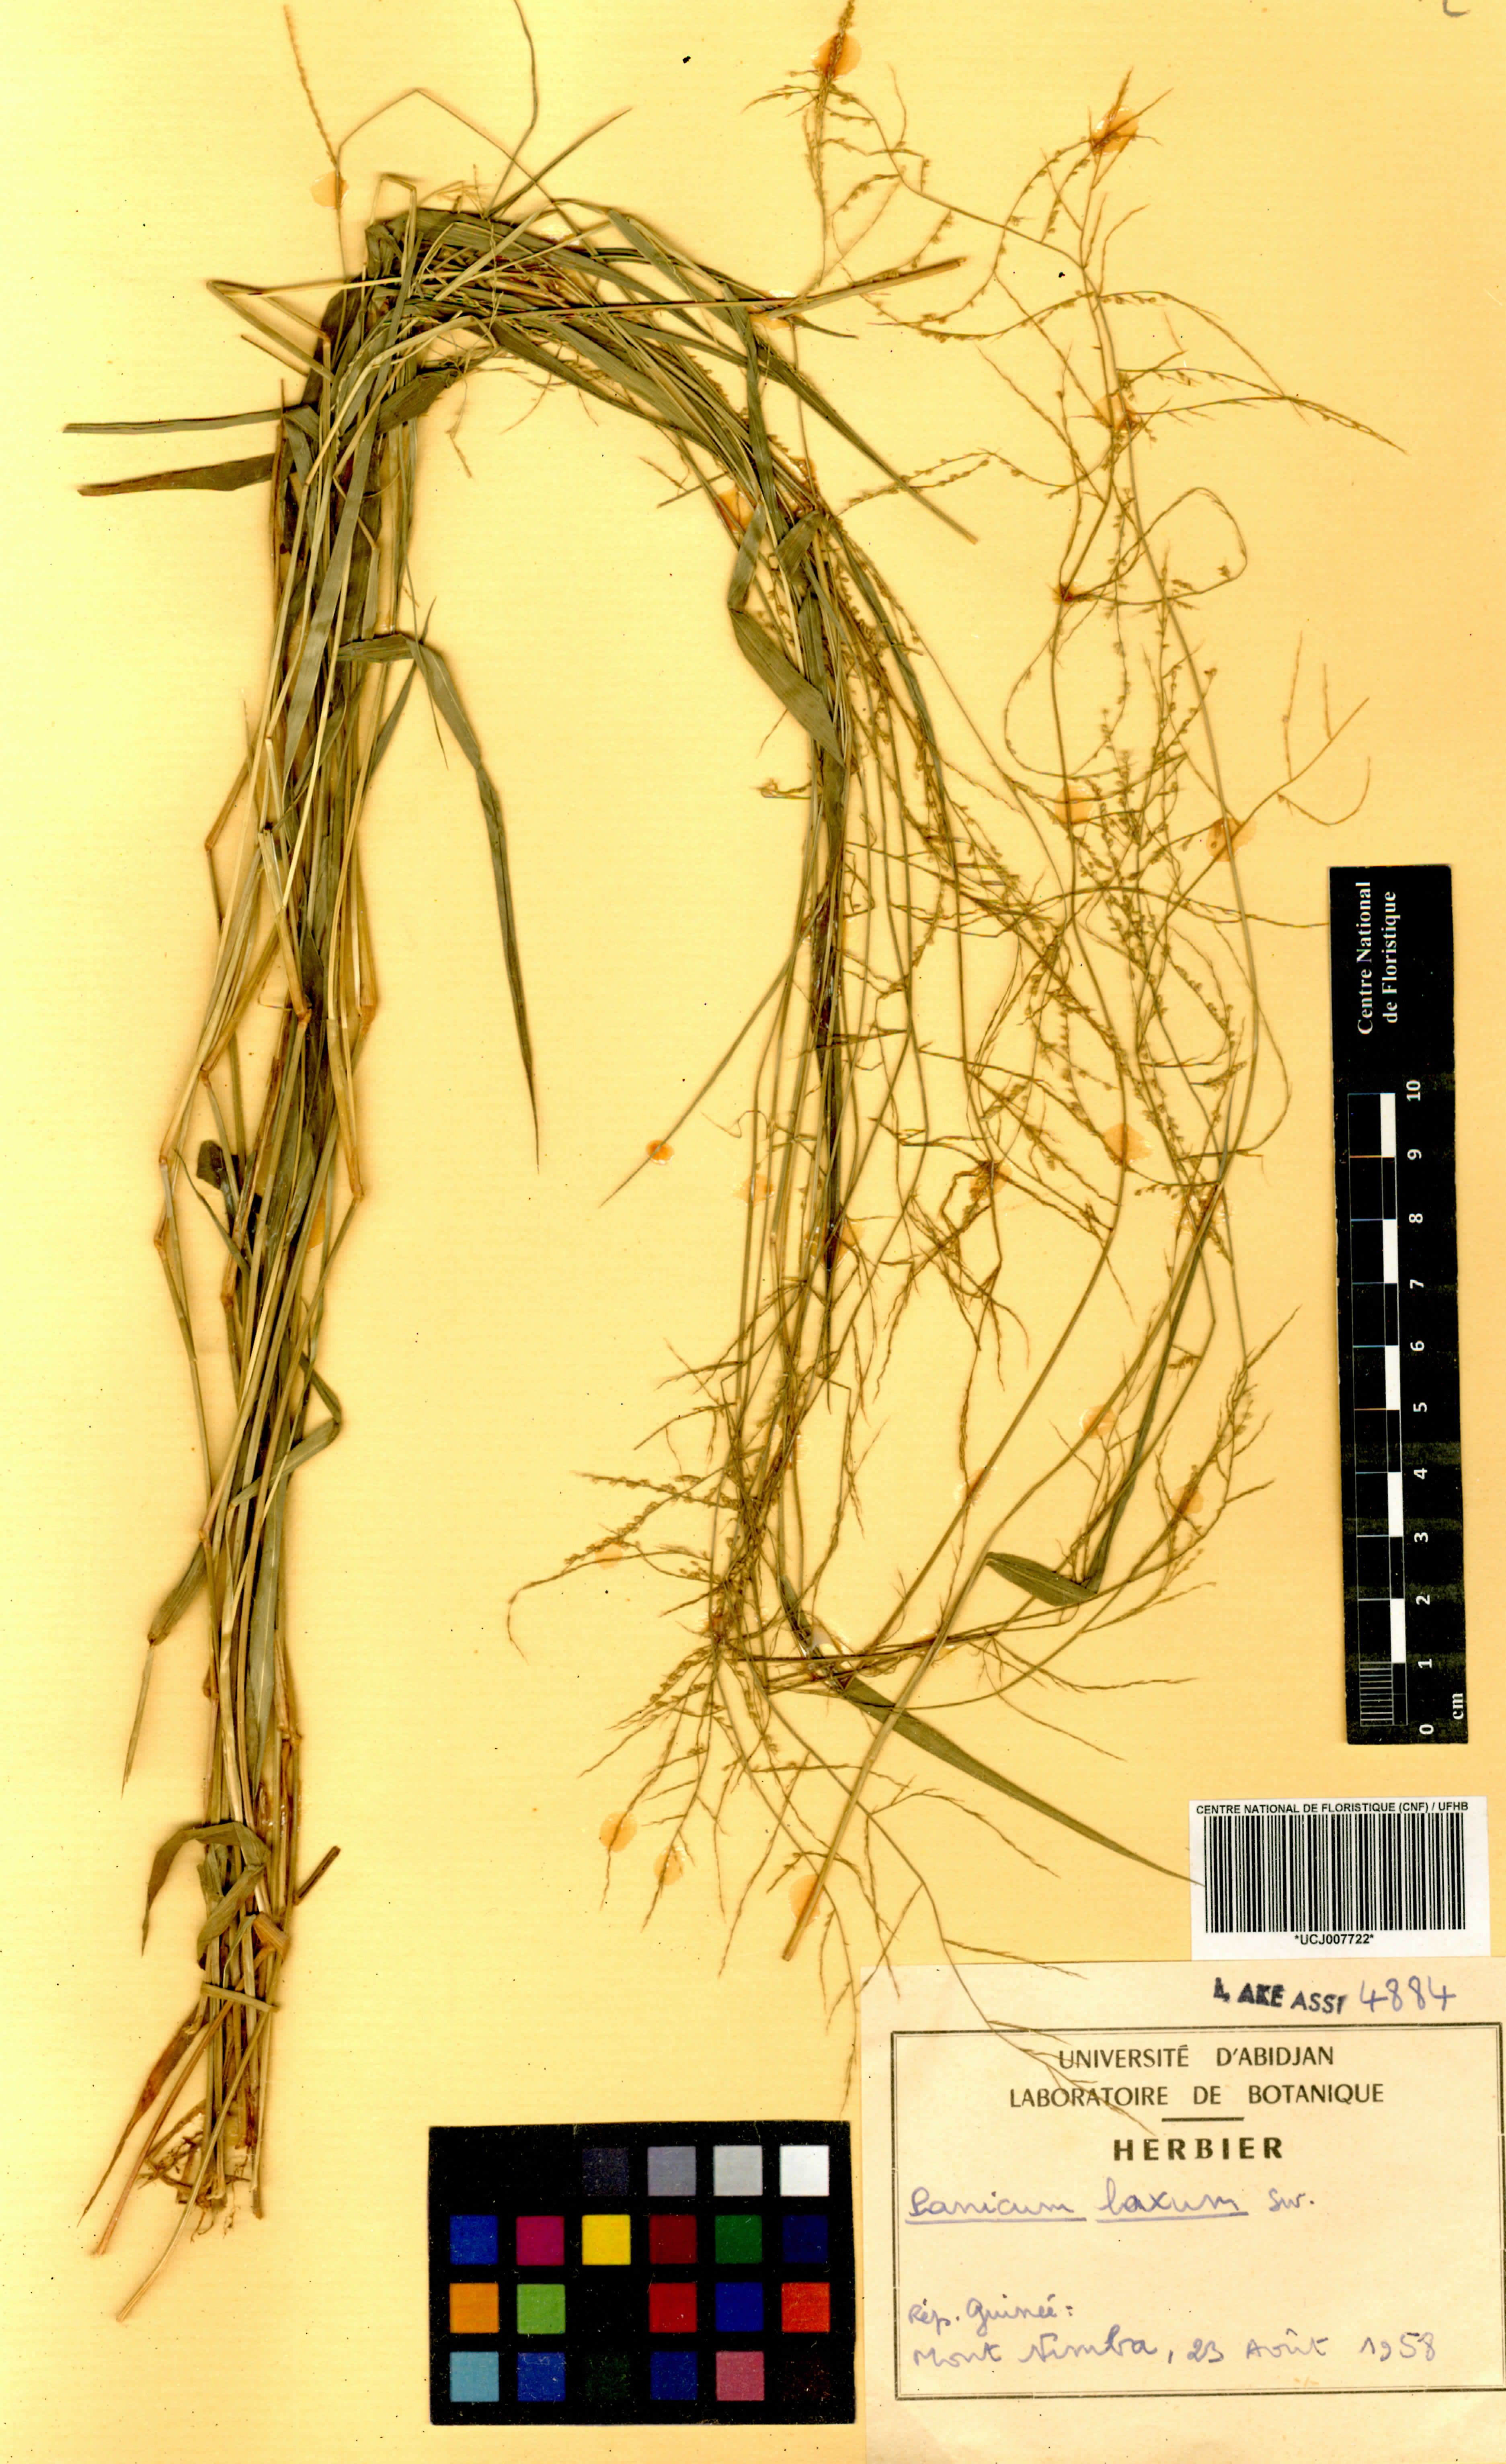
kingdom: Plantae
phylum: Tracheophyta
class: Liliopsida
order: Poales
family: Poaceae
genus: Steinchisma
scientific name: Steinchisma laxum
